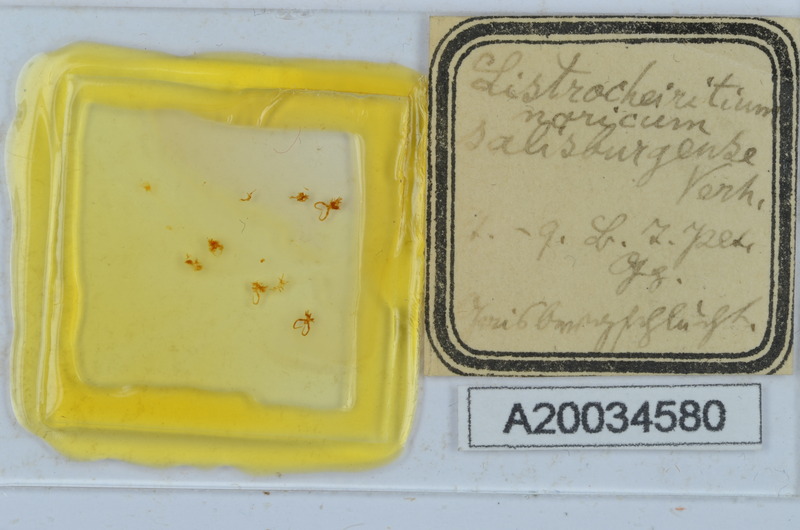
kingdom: Animalia
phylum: Arthropoda
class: Diplopoda
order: Chordeumatida
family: Craspedosomatidae
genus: Listrocheiritium
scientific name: Listrocheiritium noricum
